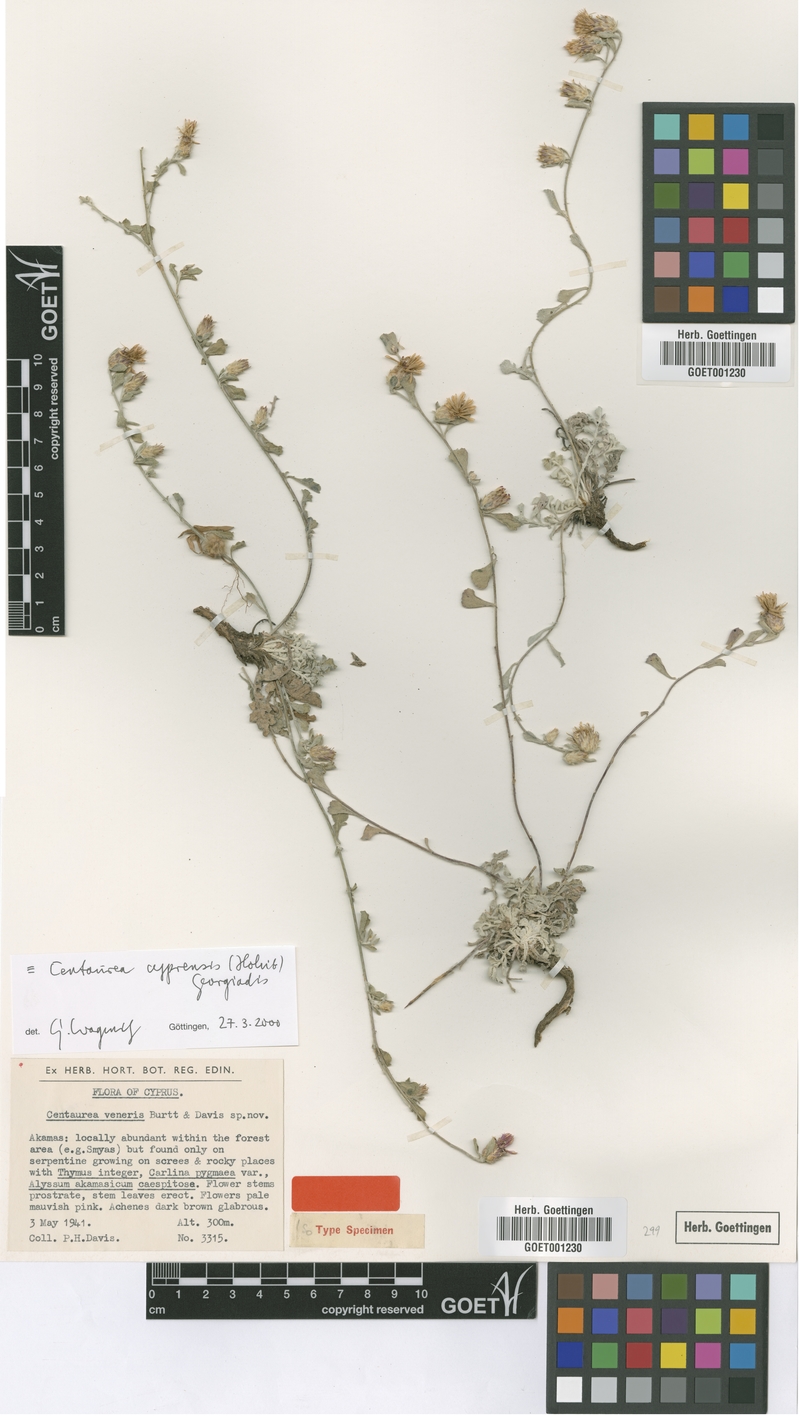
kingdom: Plantae
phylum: Tracheophyta
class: Magnoliopsida
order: Asterales
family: Asteraceae
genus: Centaurea
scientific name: Centaurea cyprensis
